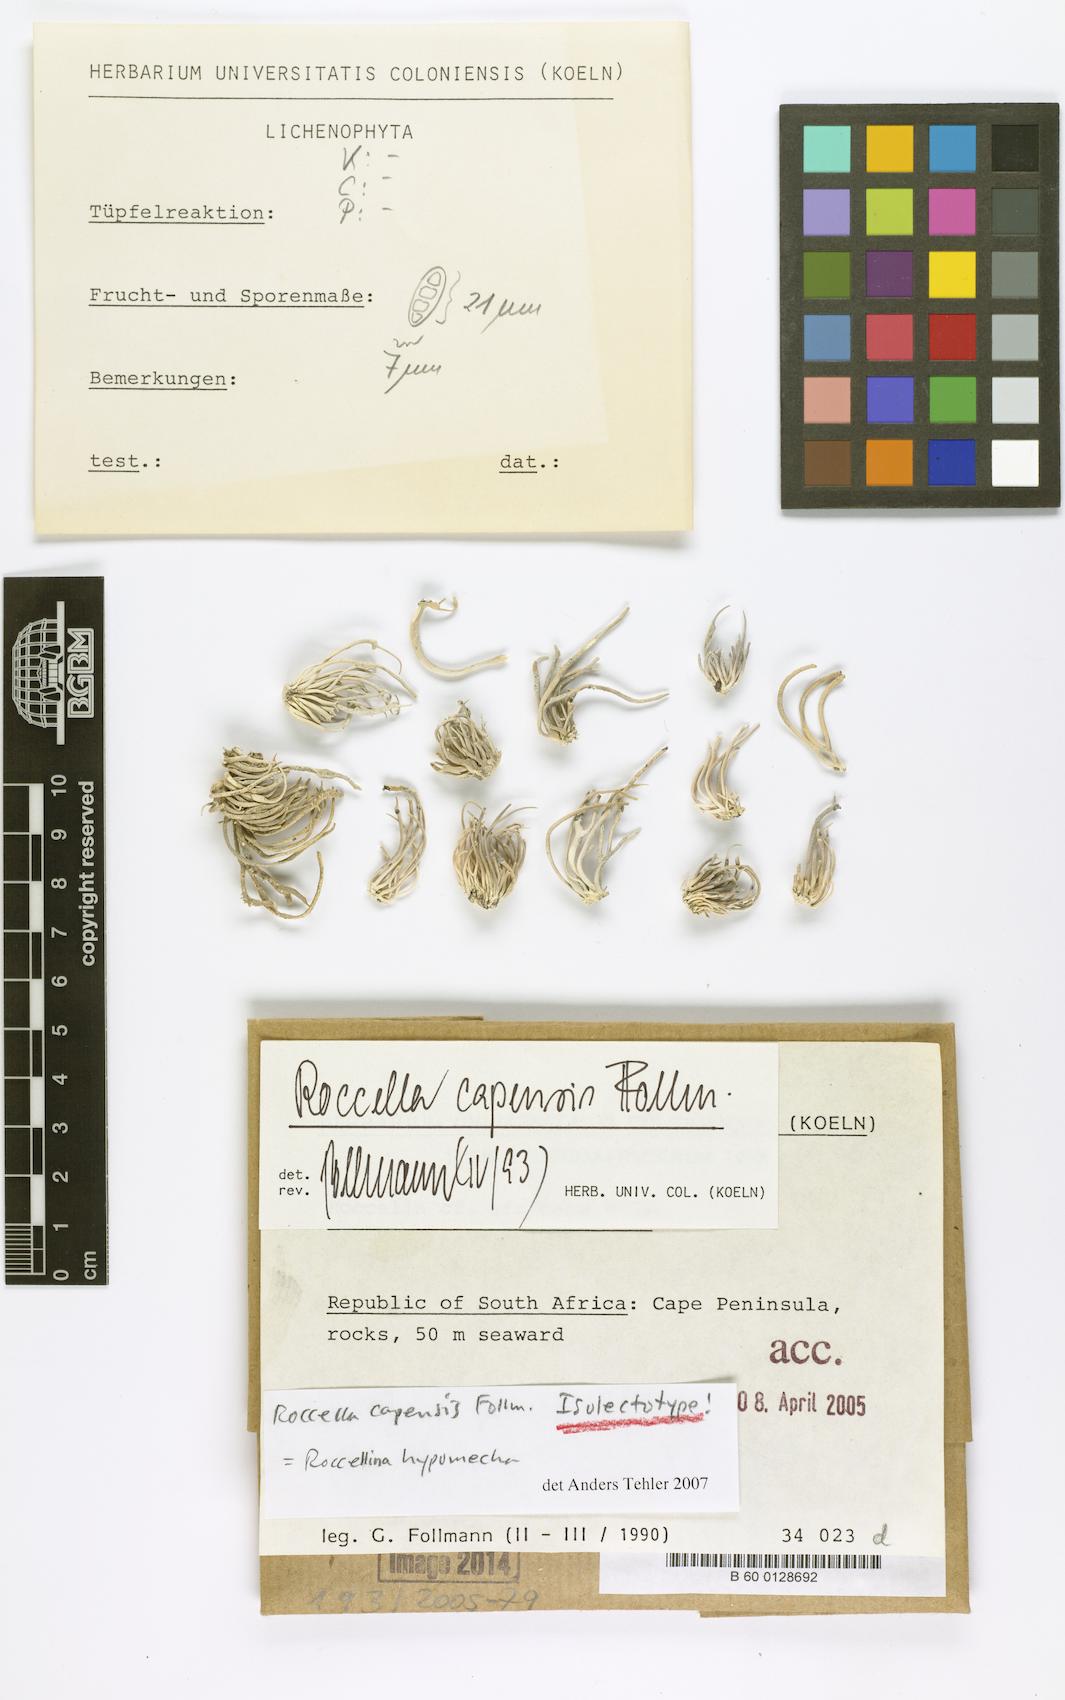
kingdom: Fungi
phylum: Ascomycota
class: Arthoniomycetes
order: Arthoniales
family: Roccellaceae
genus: Roccellina
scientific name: Roccellina capensis
